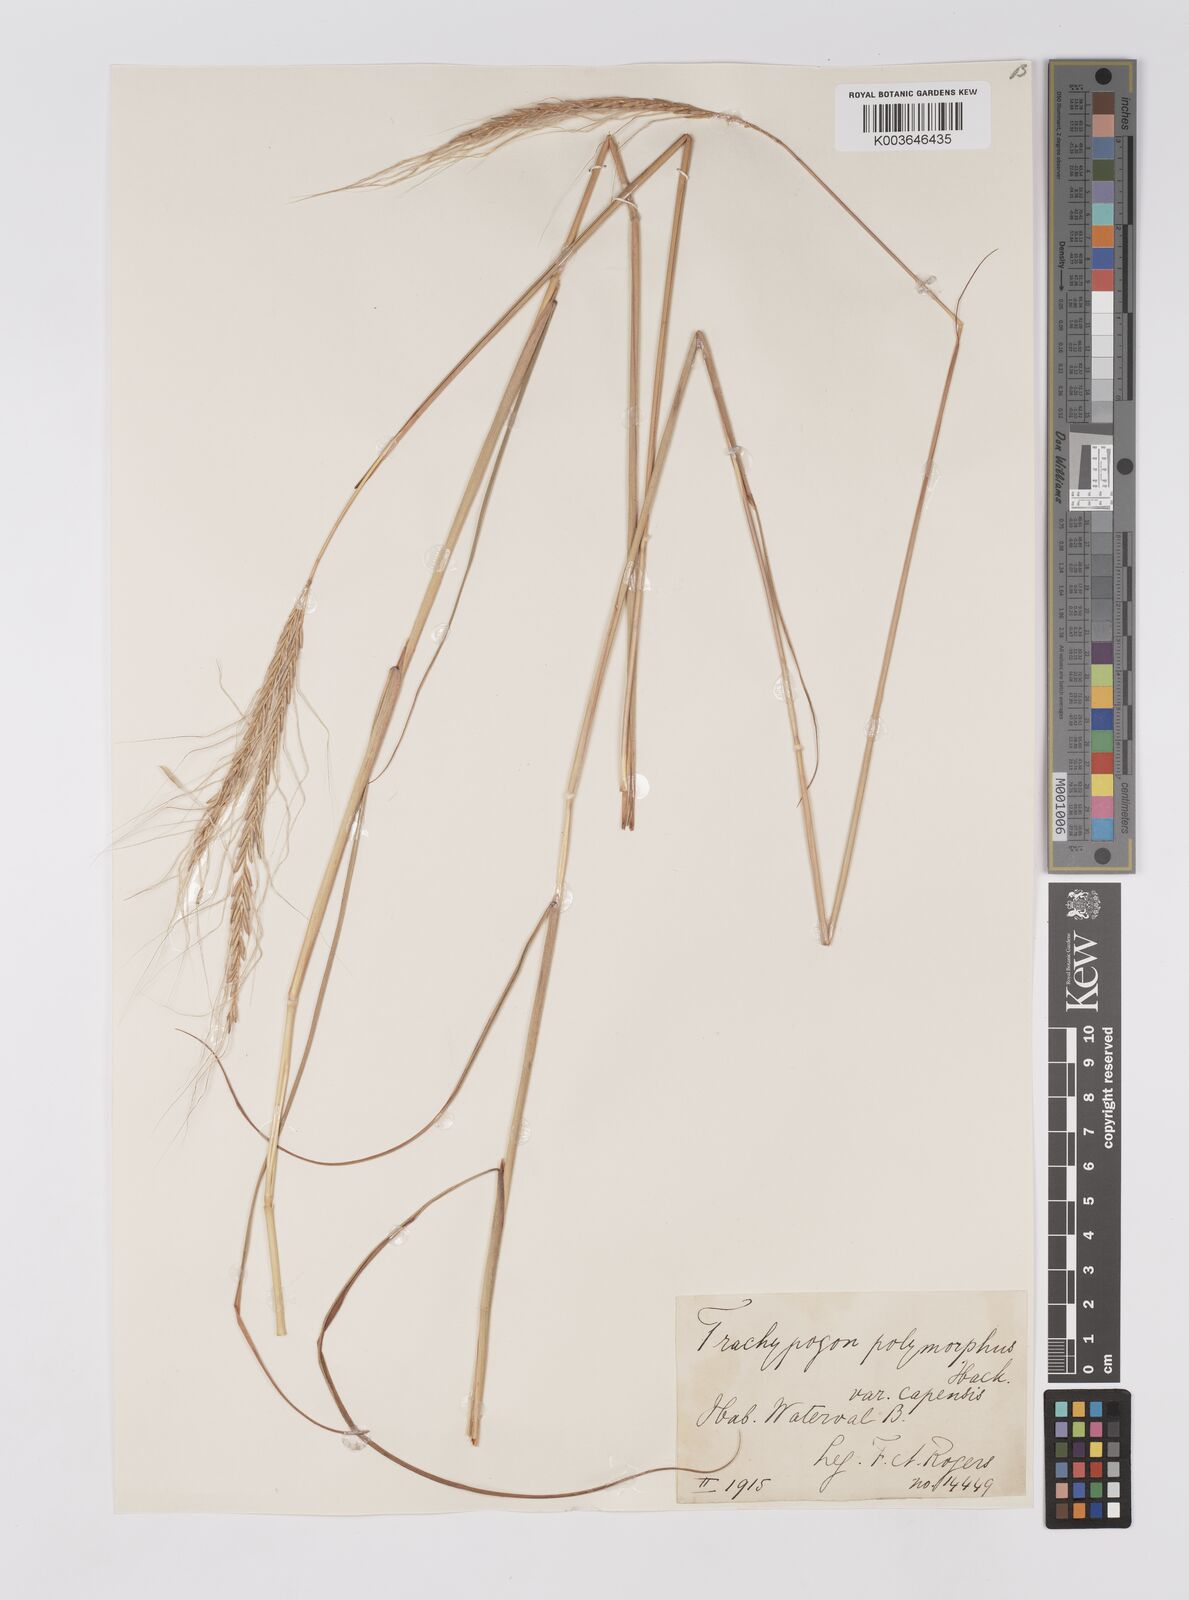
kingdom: Plantae
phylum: Tracheophyta
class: Liliopsida
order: Poales
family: Poaceae
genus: Trachypogon
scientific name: Trachypogon spicatus
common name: Crinkle-awn
